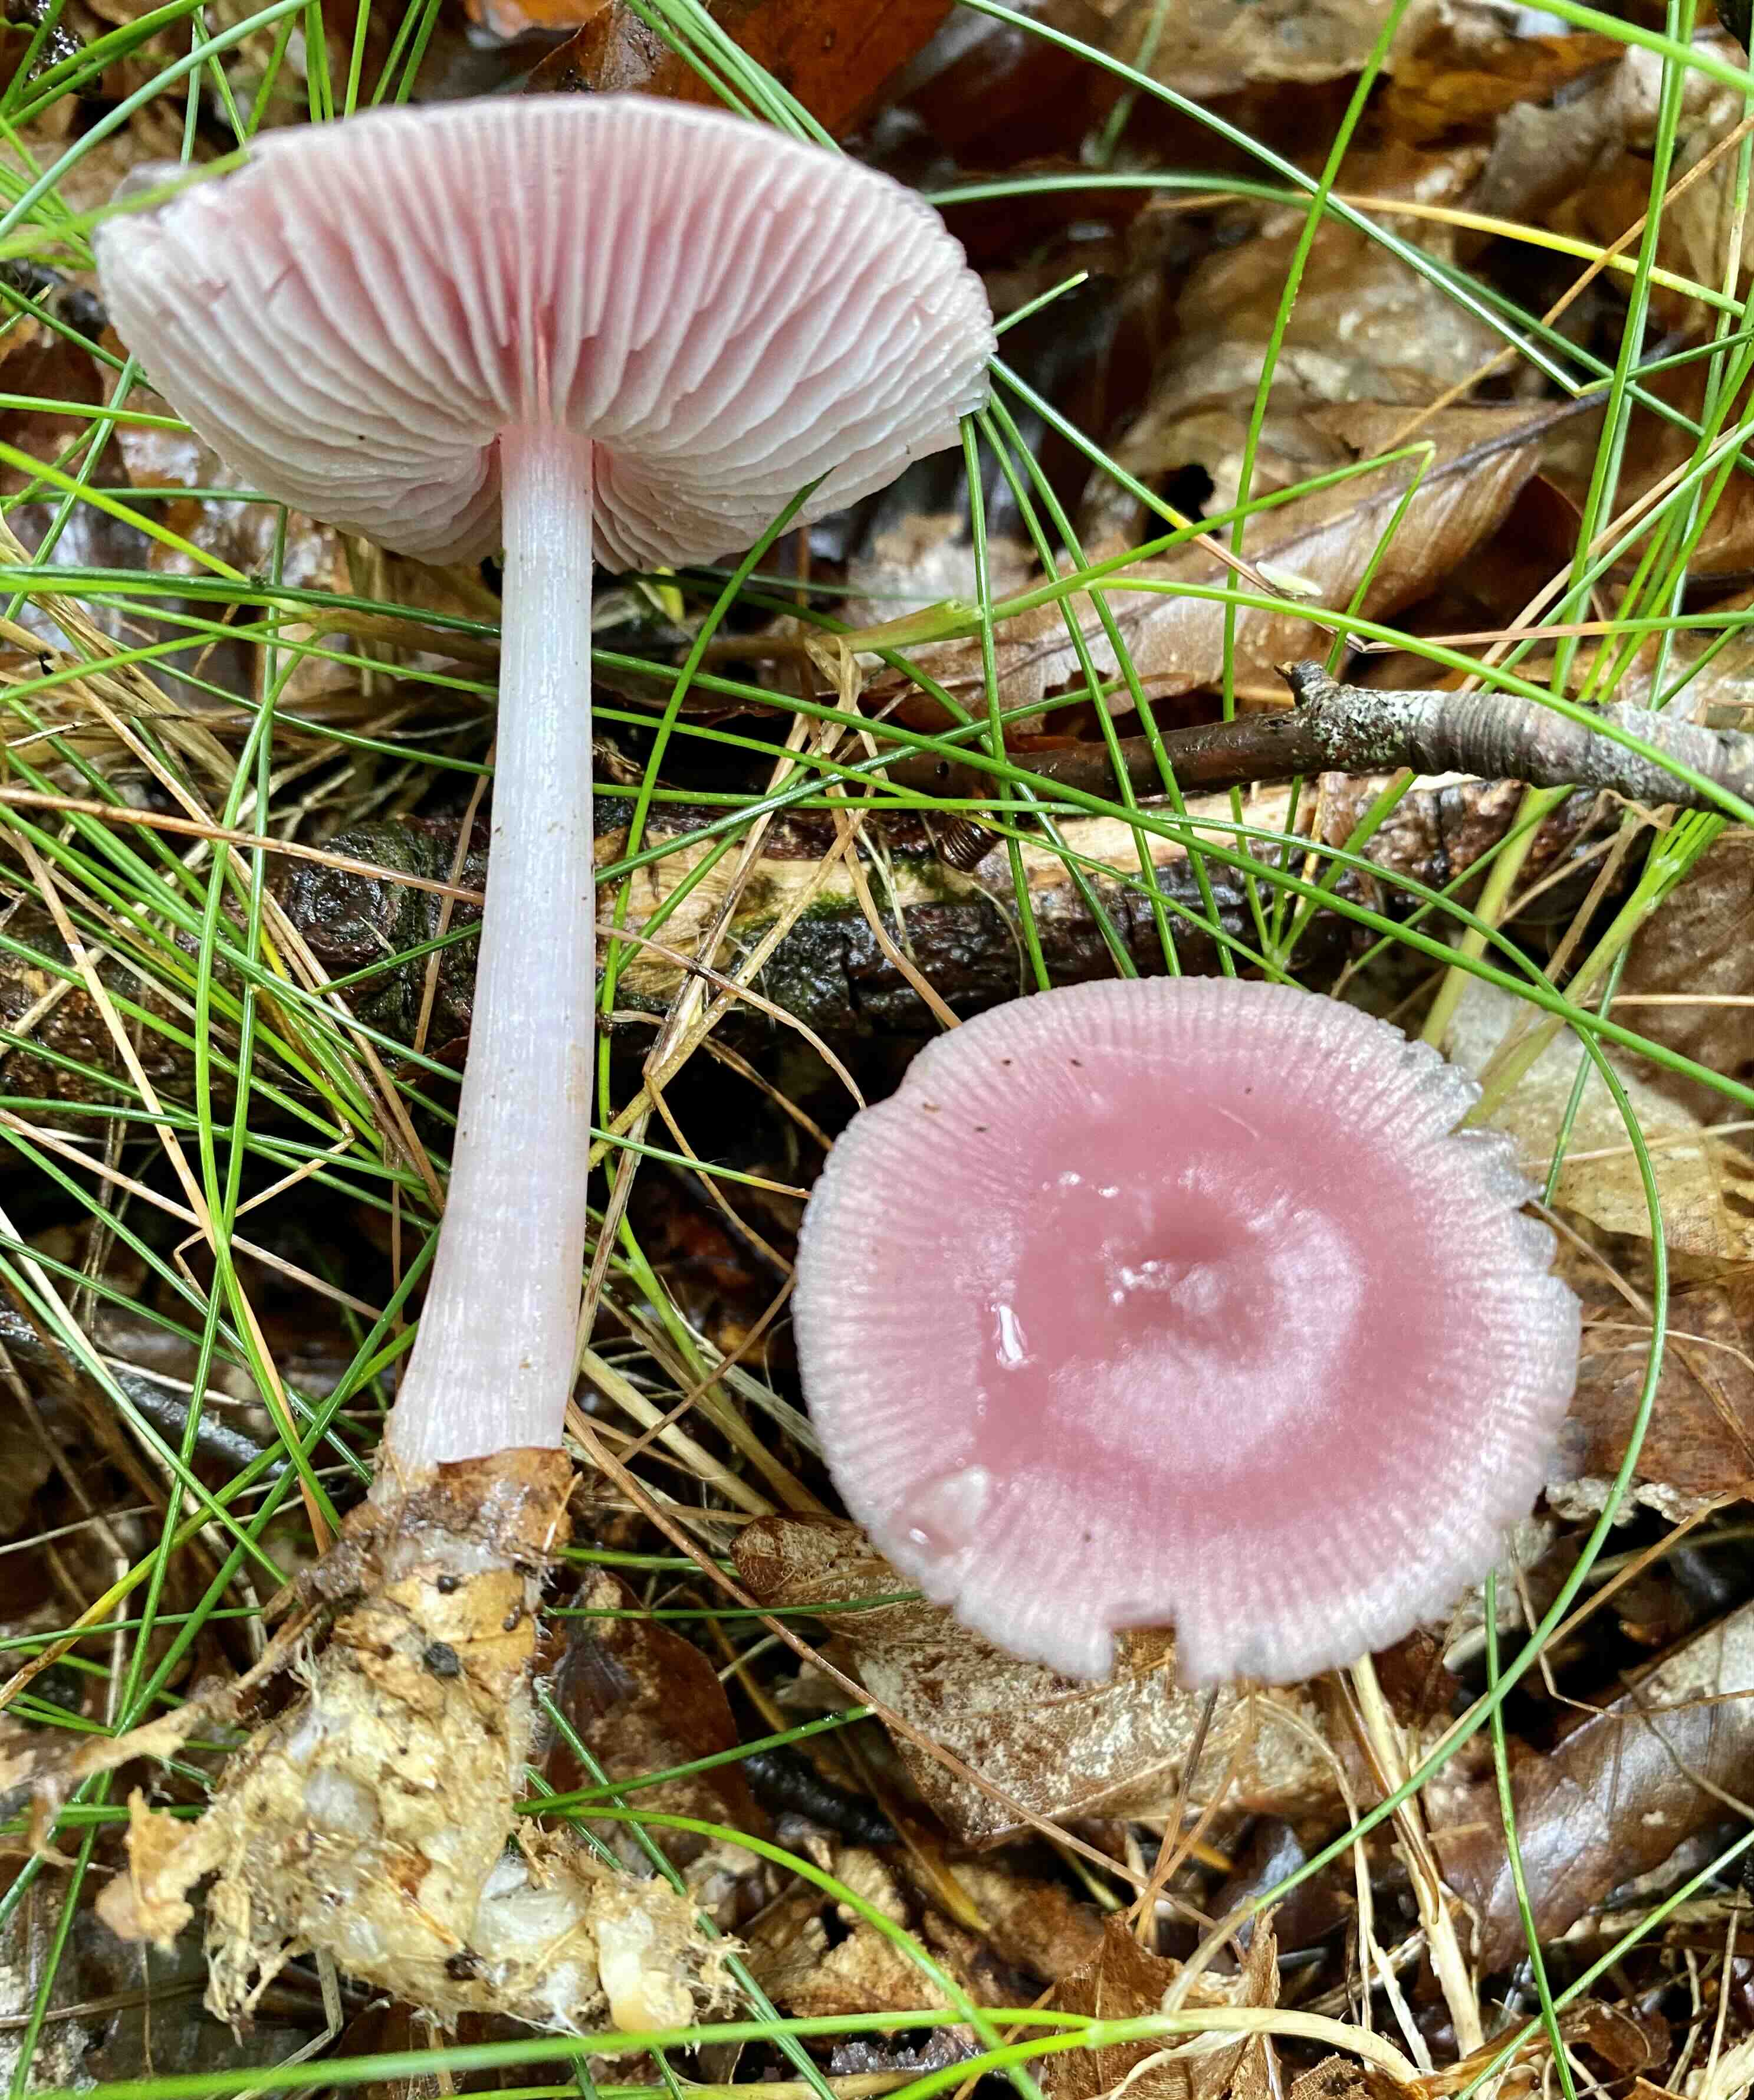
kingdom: Fungi
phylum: Basidiomycota
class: Agaricomycetes
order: Agaricales
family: Mycenaceae
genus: Mycena
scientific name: Mycena rosea
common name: rosa huesvamp
